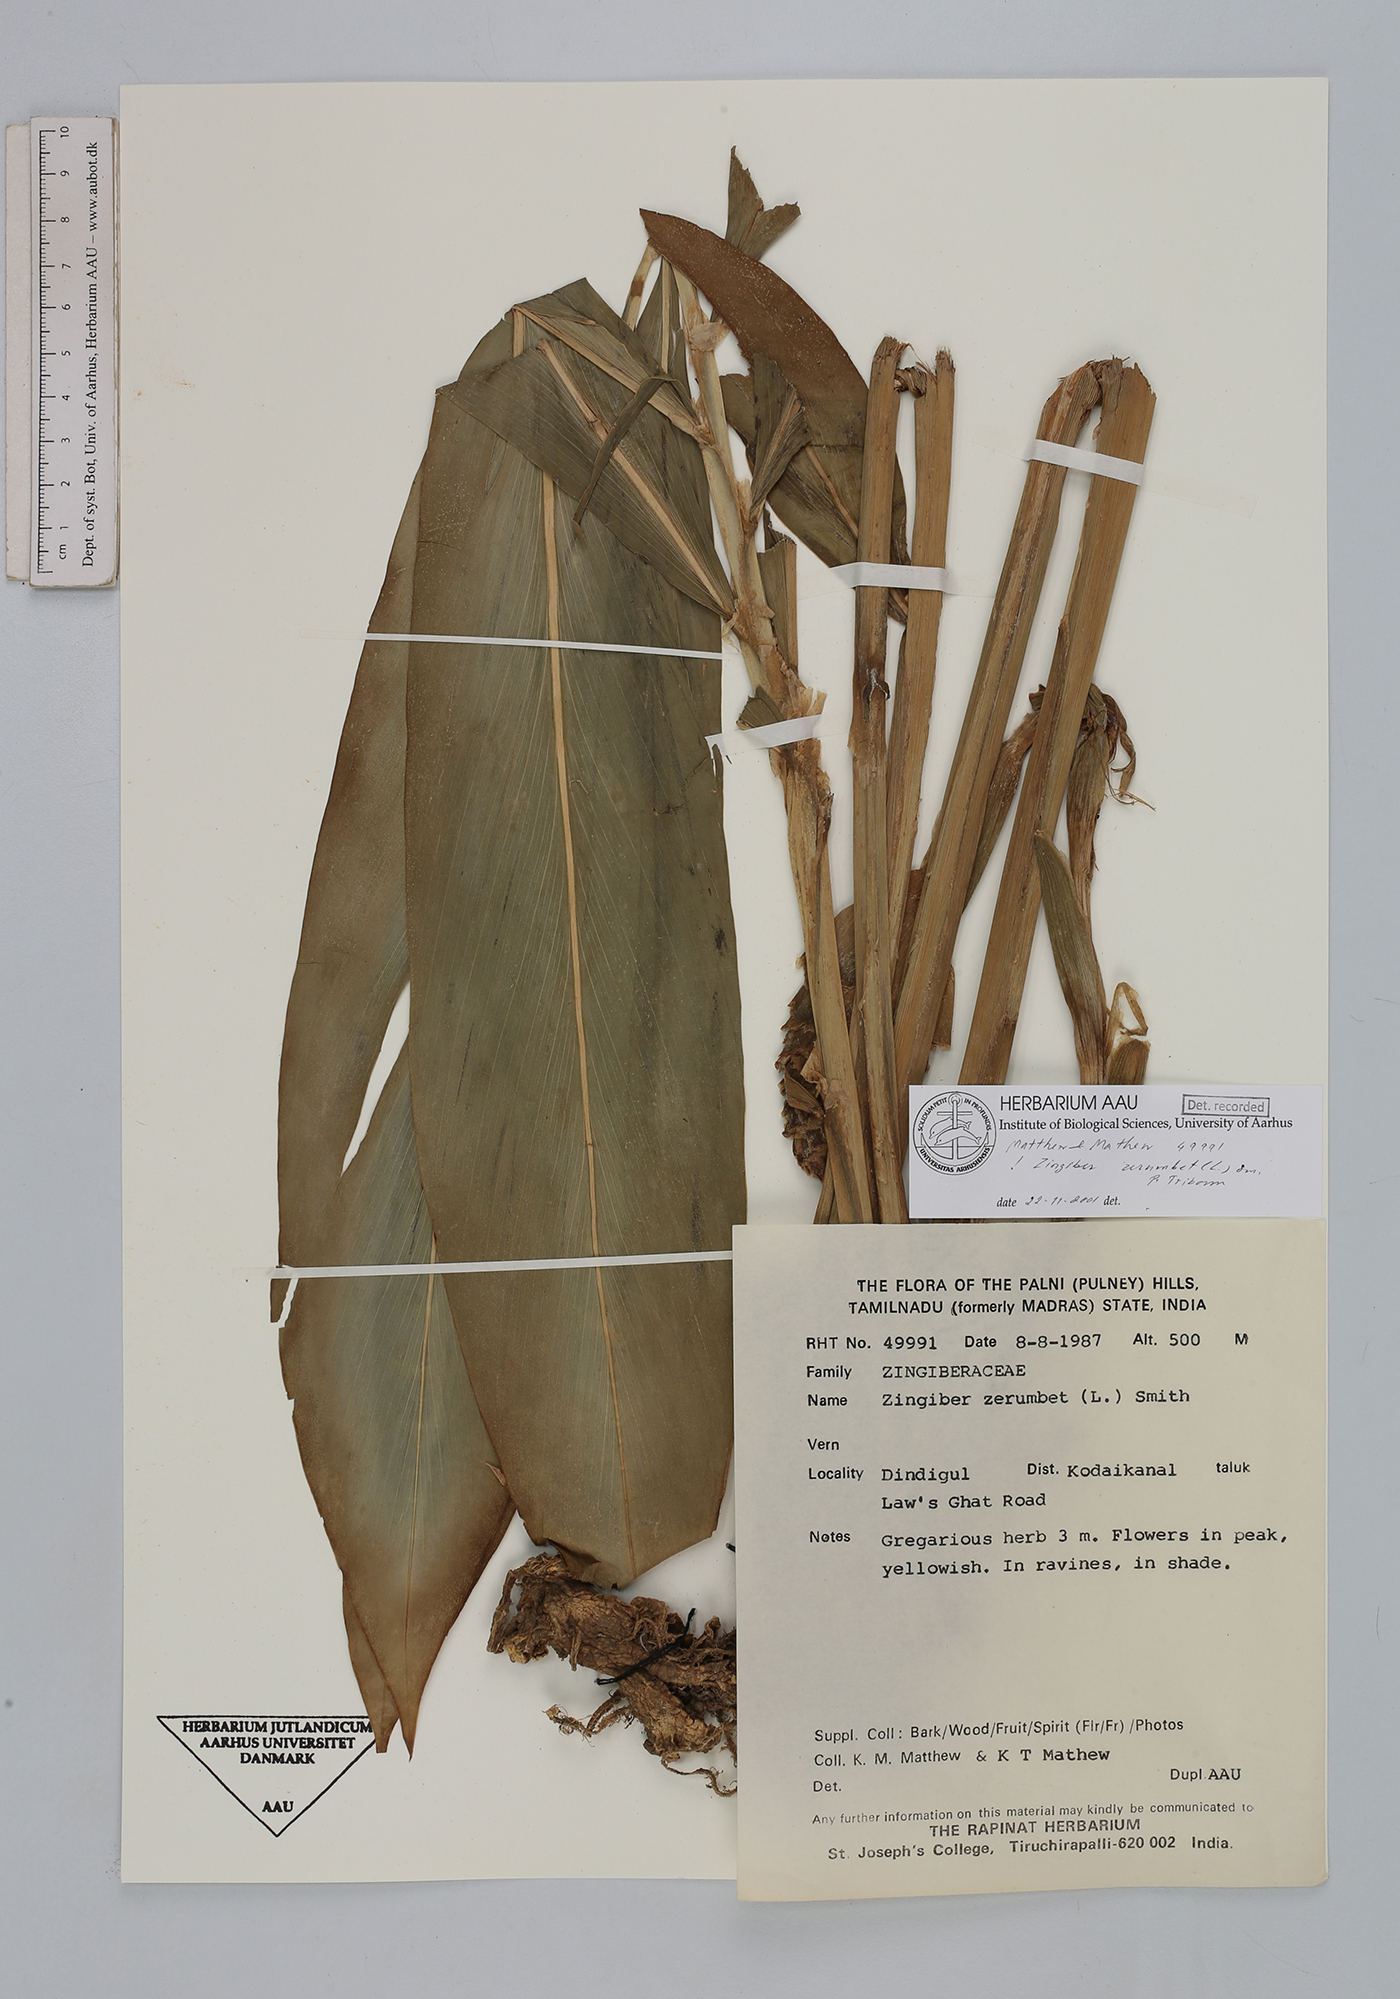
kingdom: Plantae
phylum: Tracheophyta
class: Liliopsida
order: Zingiberales
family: Zingiberaceae
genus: Zingiber
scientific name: Zingiber zerumbet
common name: Bitter ginger
